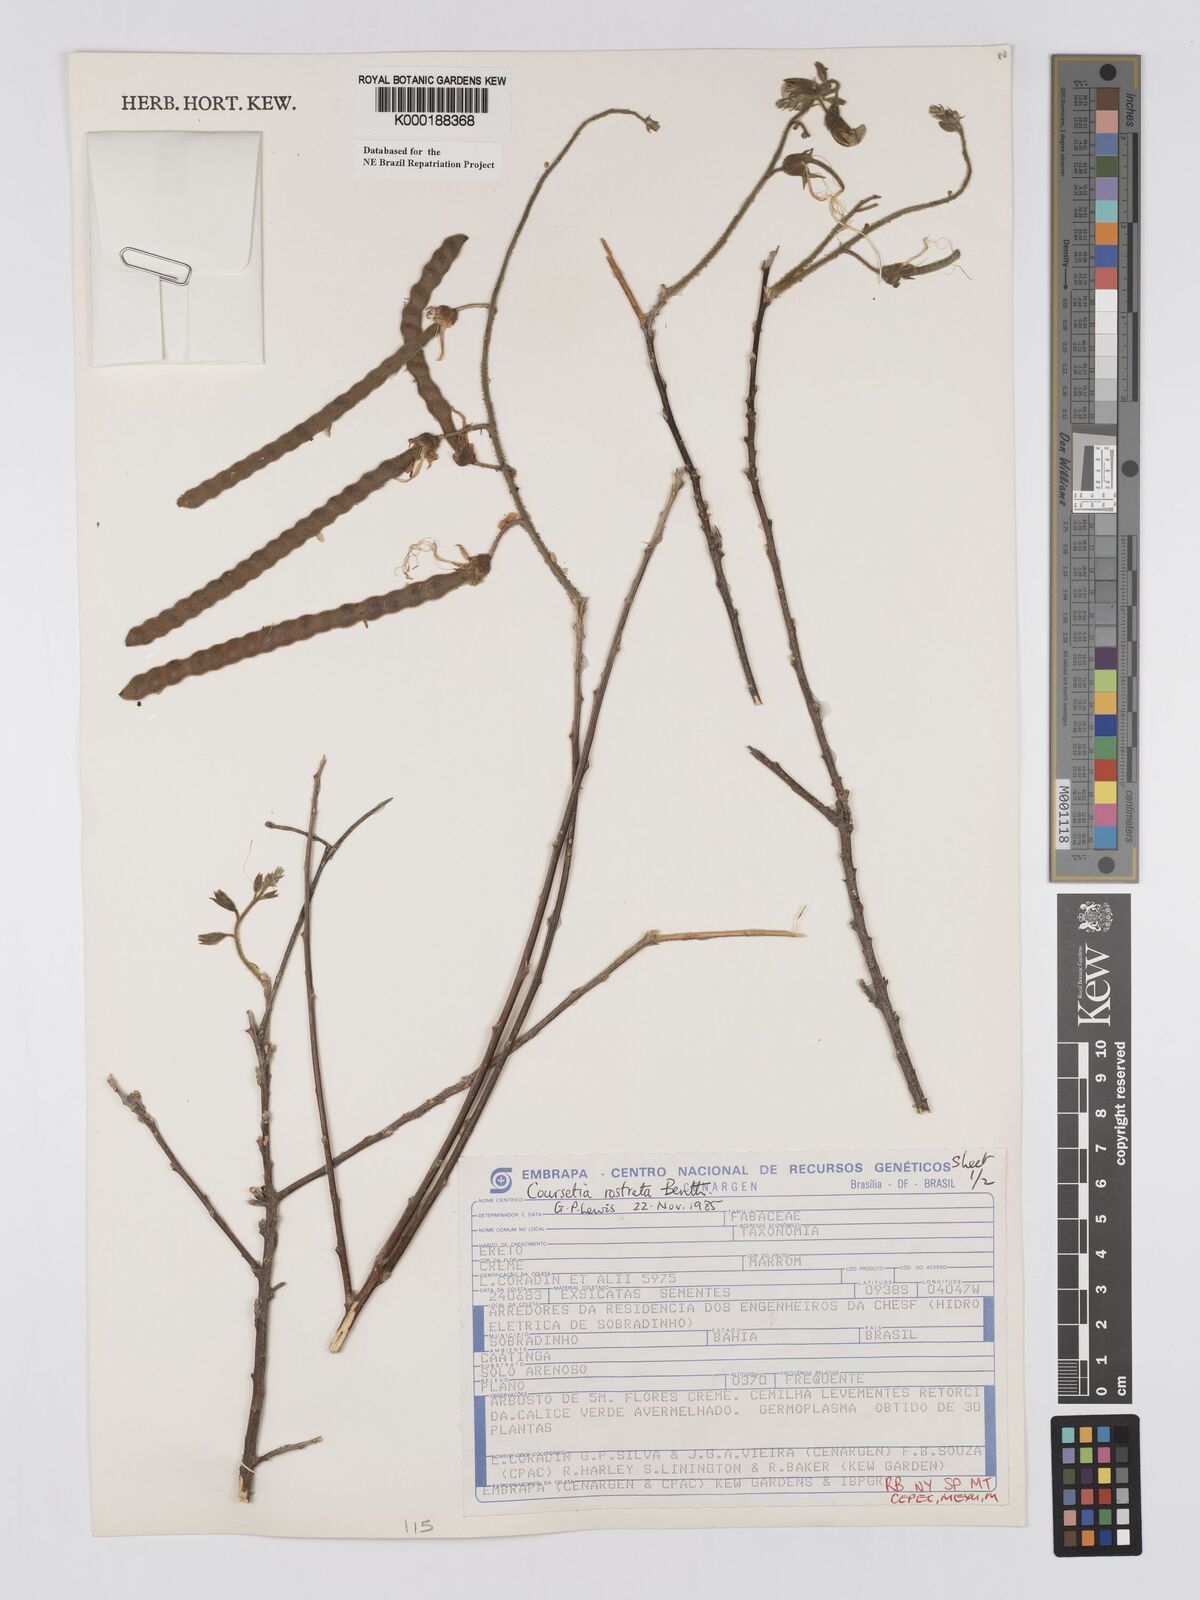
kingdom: Plantae
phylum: Tracheophyta
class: Magnoliopsida
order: Fabales
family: Fabaceae
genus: Coursetia
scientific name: Coursetia rostrata
